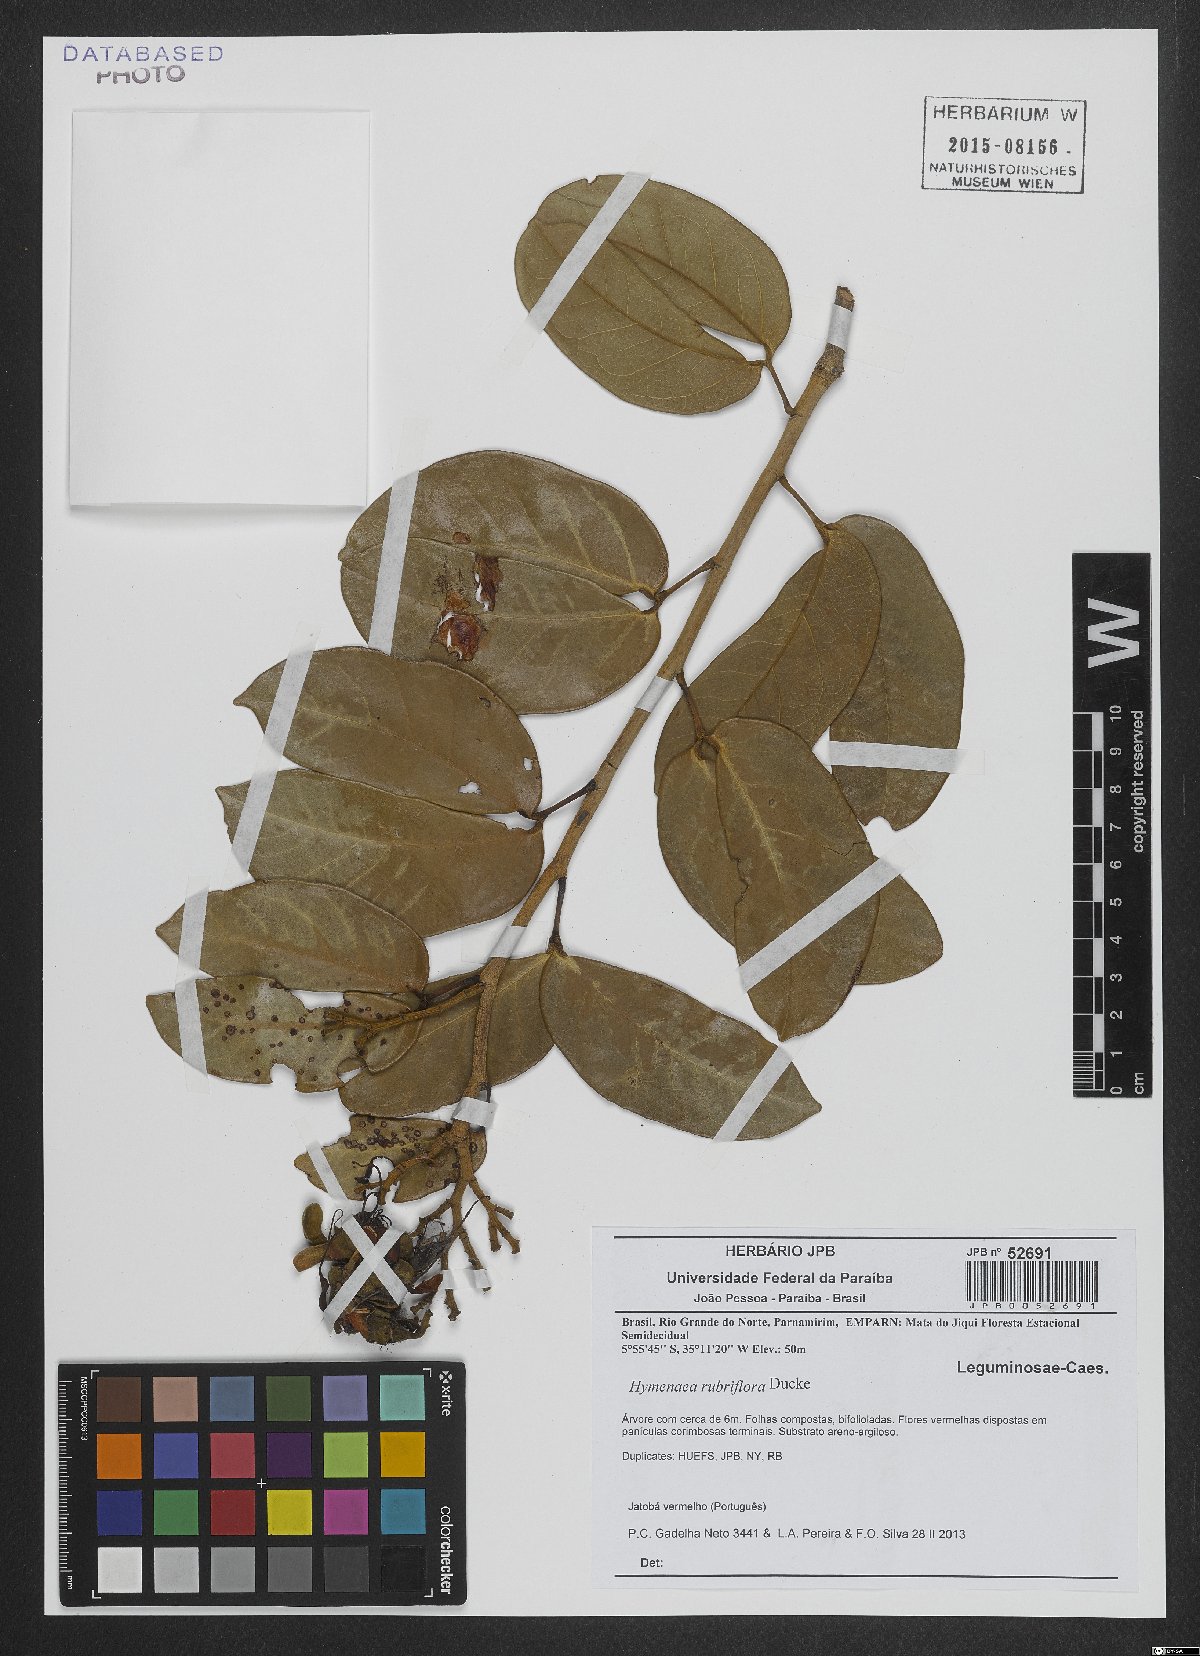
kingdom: Plantae
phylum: Tracheophyta
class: Magnoliopsida
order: Fabales
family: Fabaceae
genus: Hymenaea
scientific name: Hymenaea rubriflora
